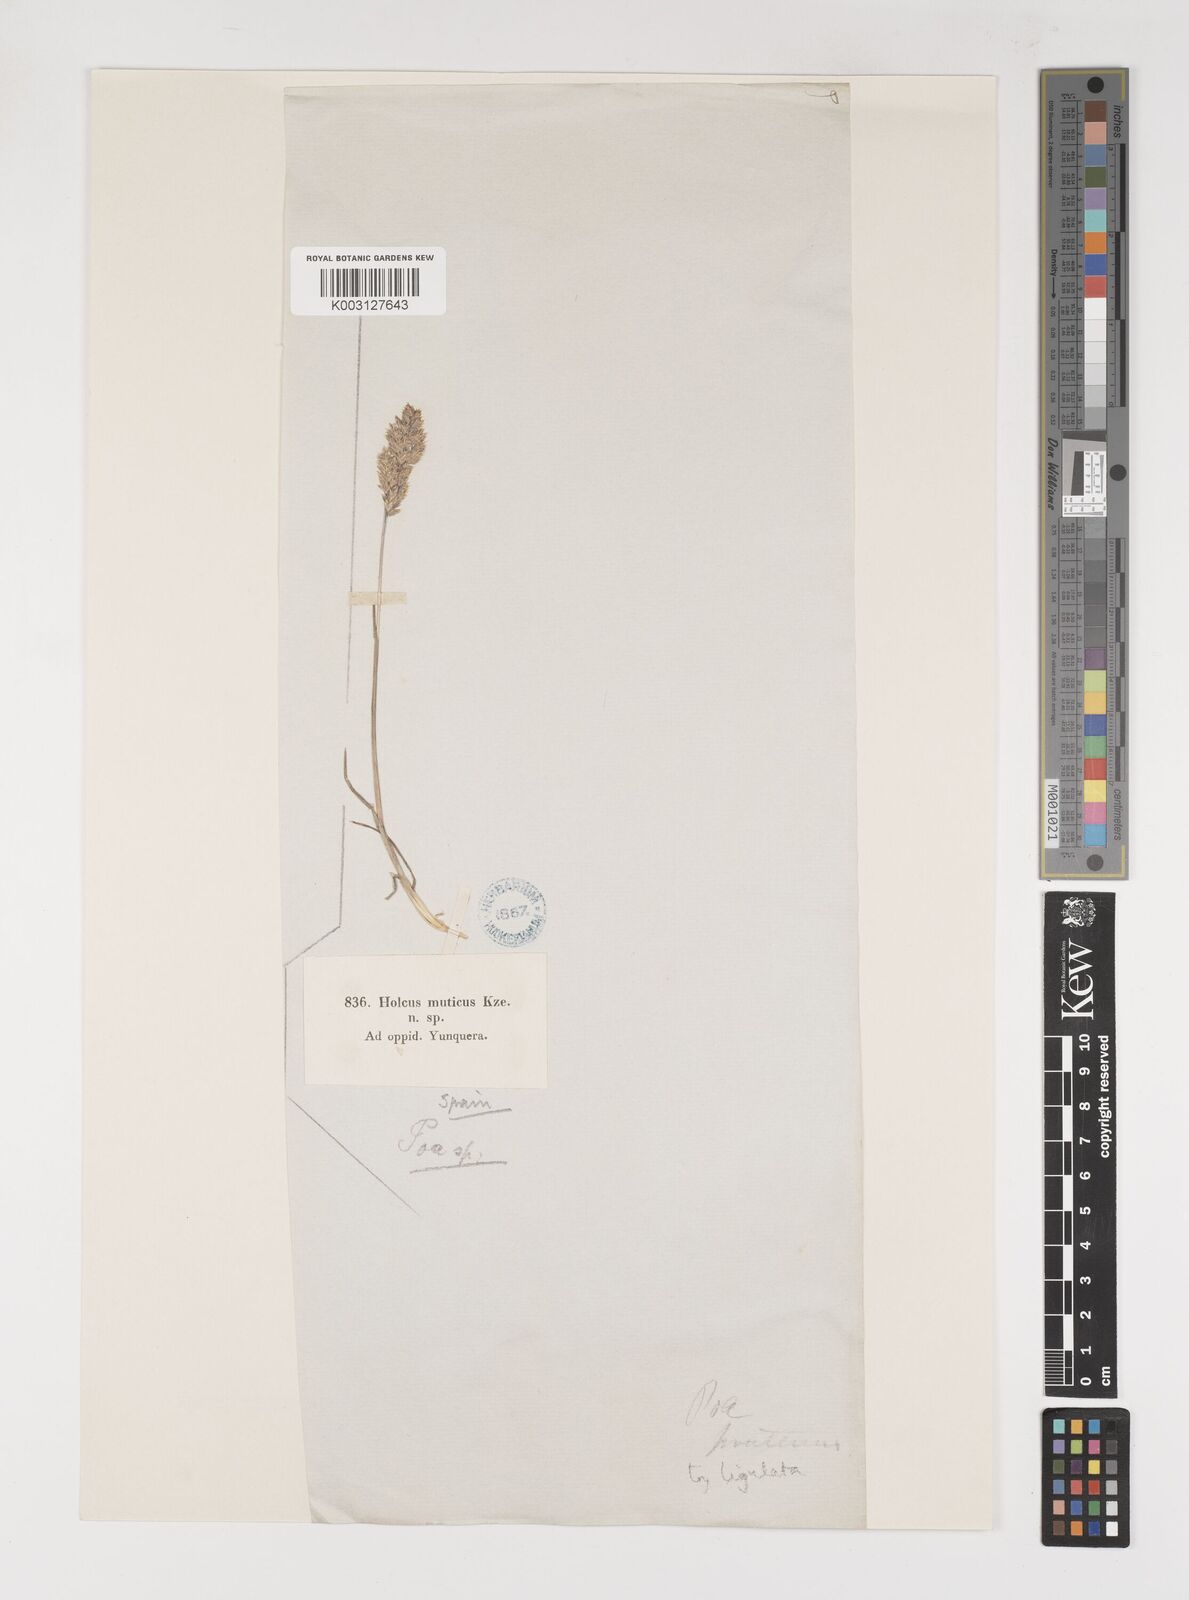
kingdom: Plantae
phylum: Tracheophyta
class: Liliopsida
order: Poales
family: Poaceae
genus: Poa
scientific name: Poa
